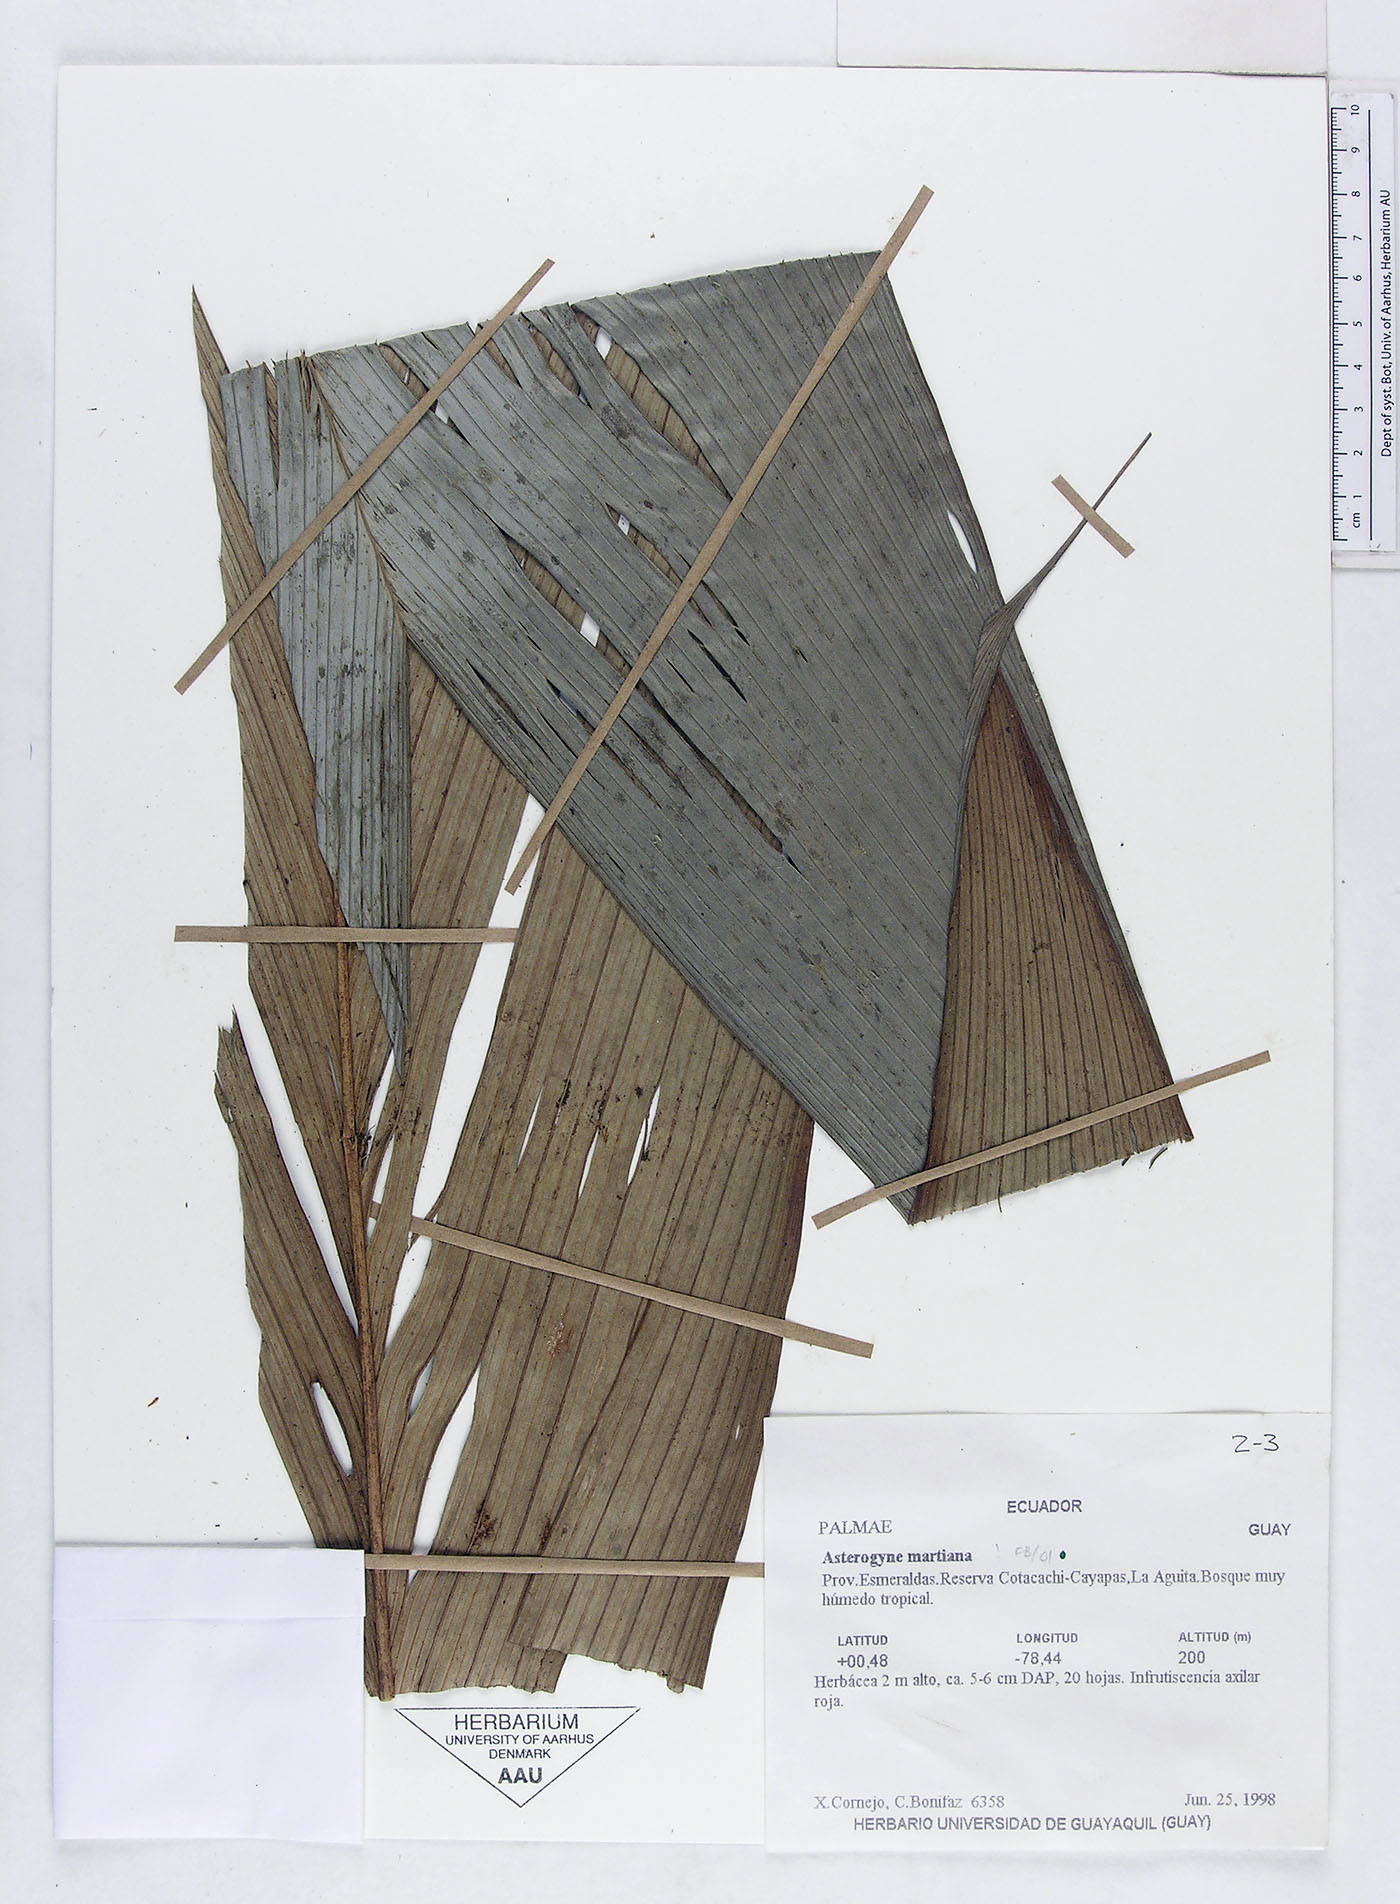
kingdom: Plantae
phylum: Tracheophyta
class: Liliopsida
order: Arecales
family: Arecaceae
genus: Asterogyne
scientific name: Asterogyne martiana
